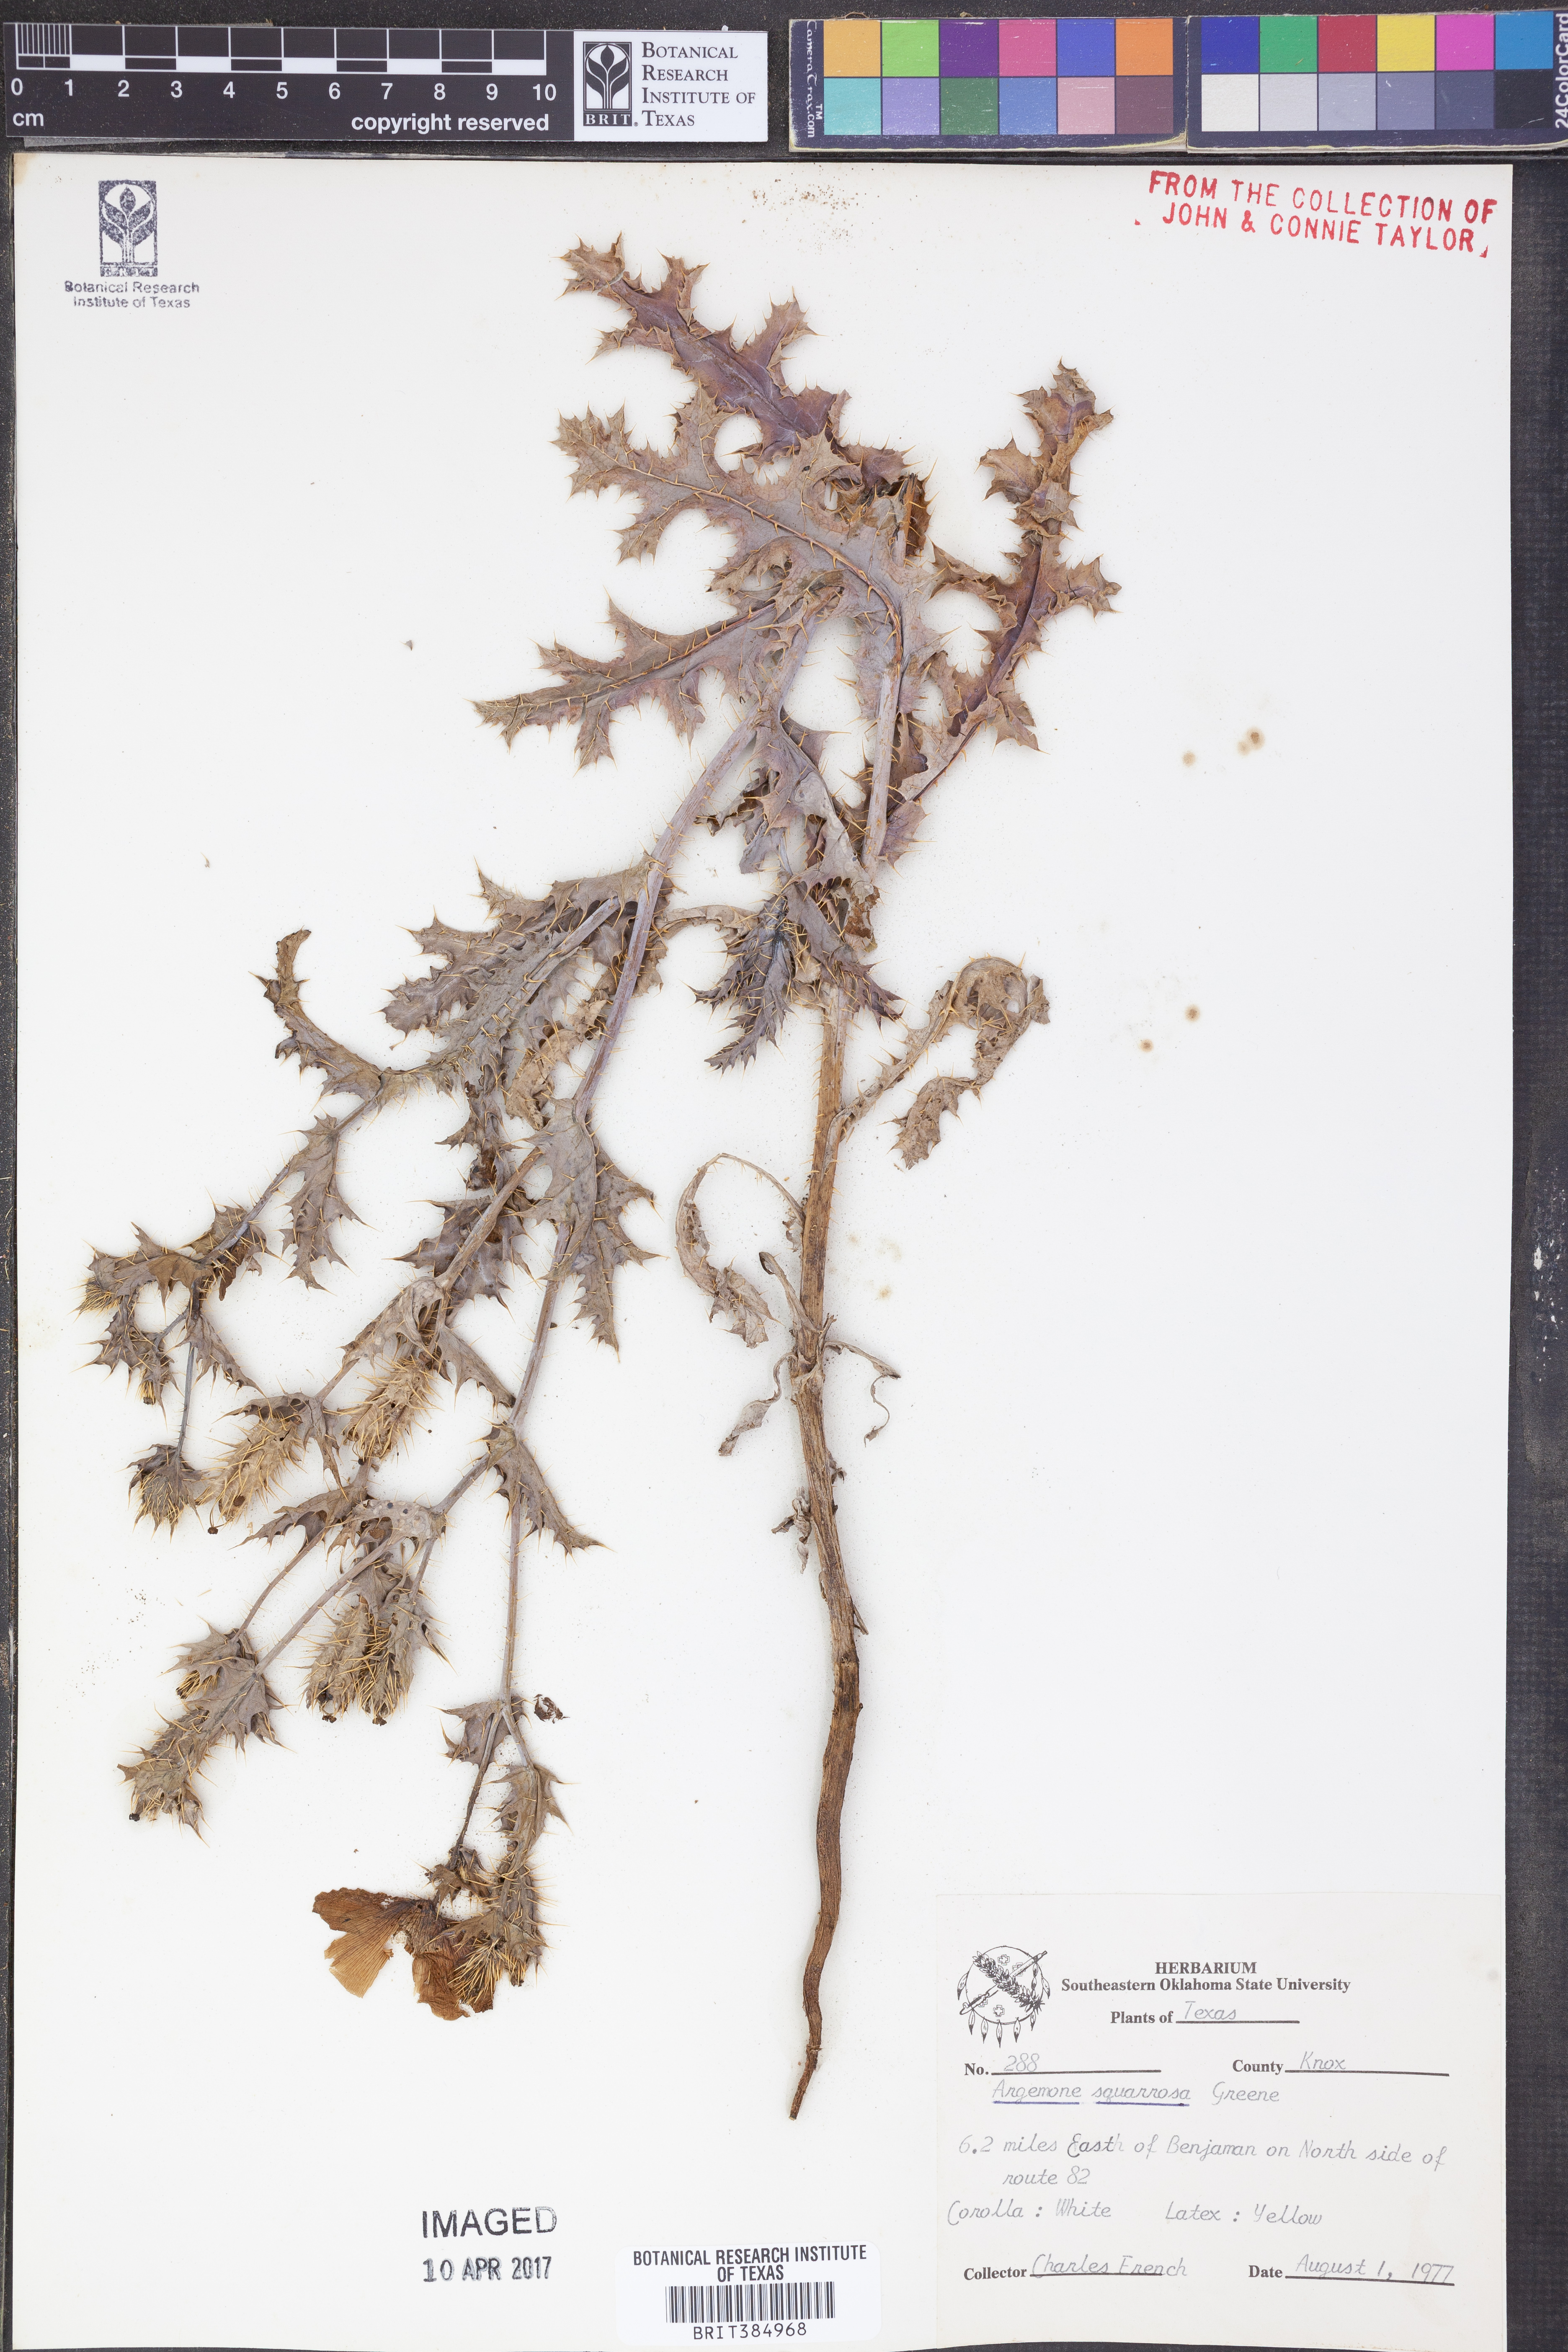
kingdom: Plantae
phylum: Tracheophyta
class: Magnoliopsida
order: Ranunculales
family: Papaveraceae
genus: Argemone
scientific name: Argemone squarrosa
